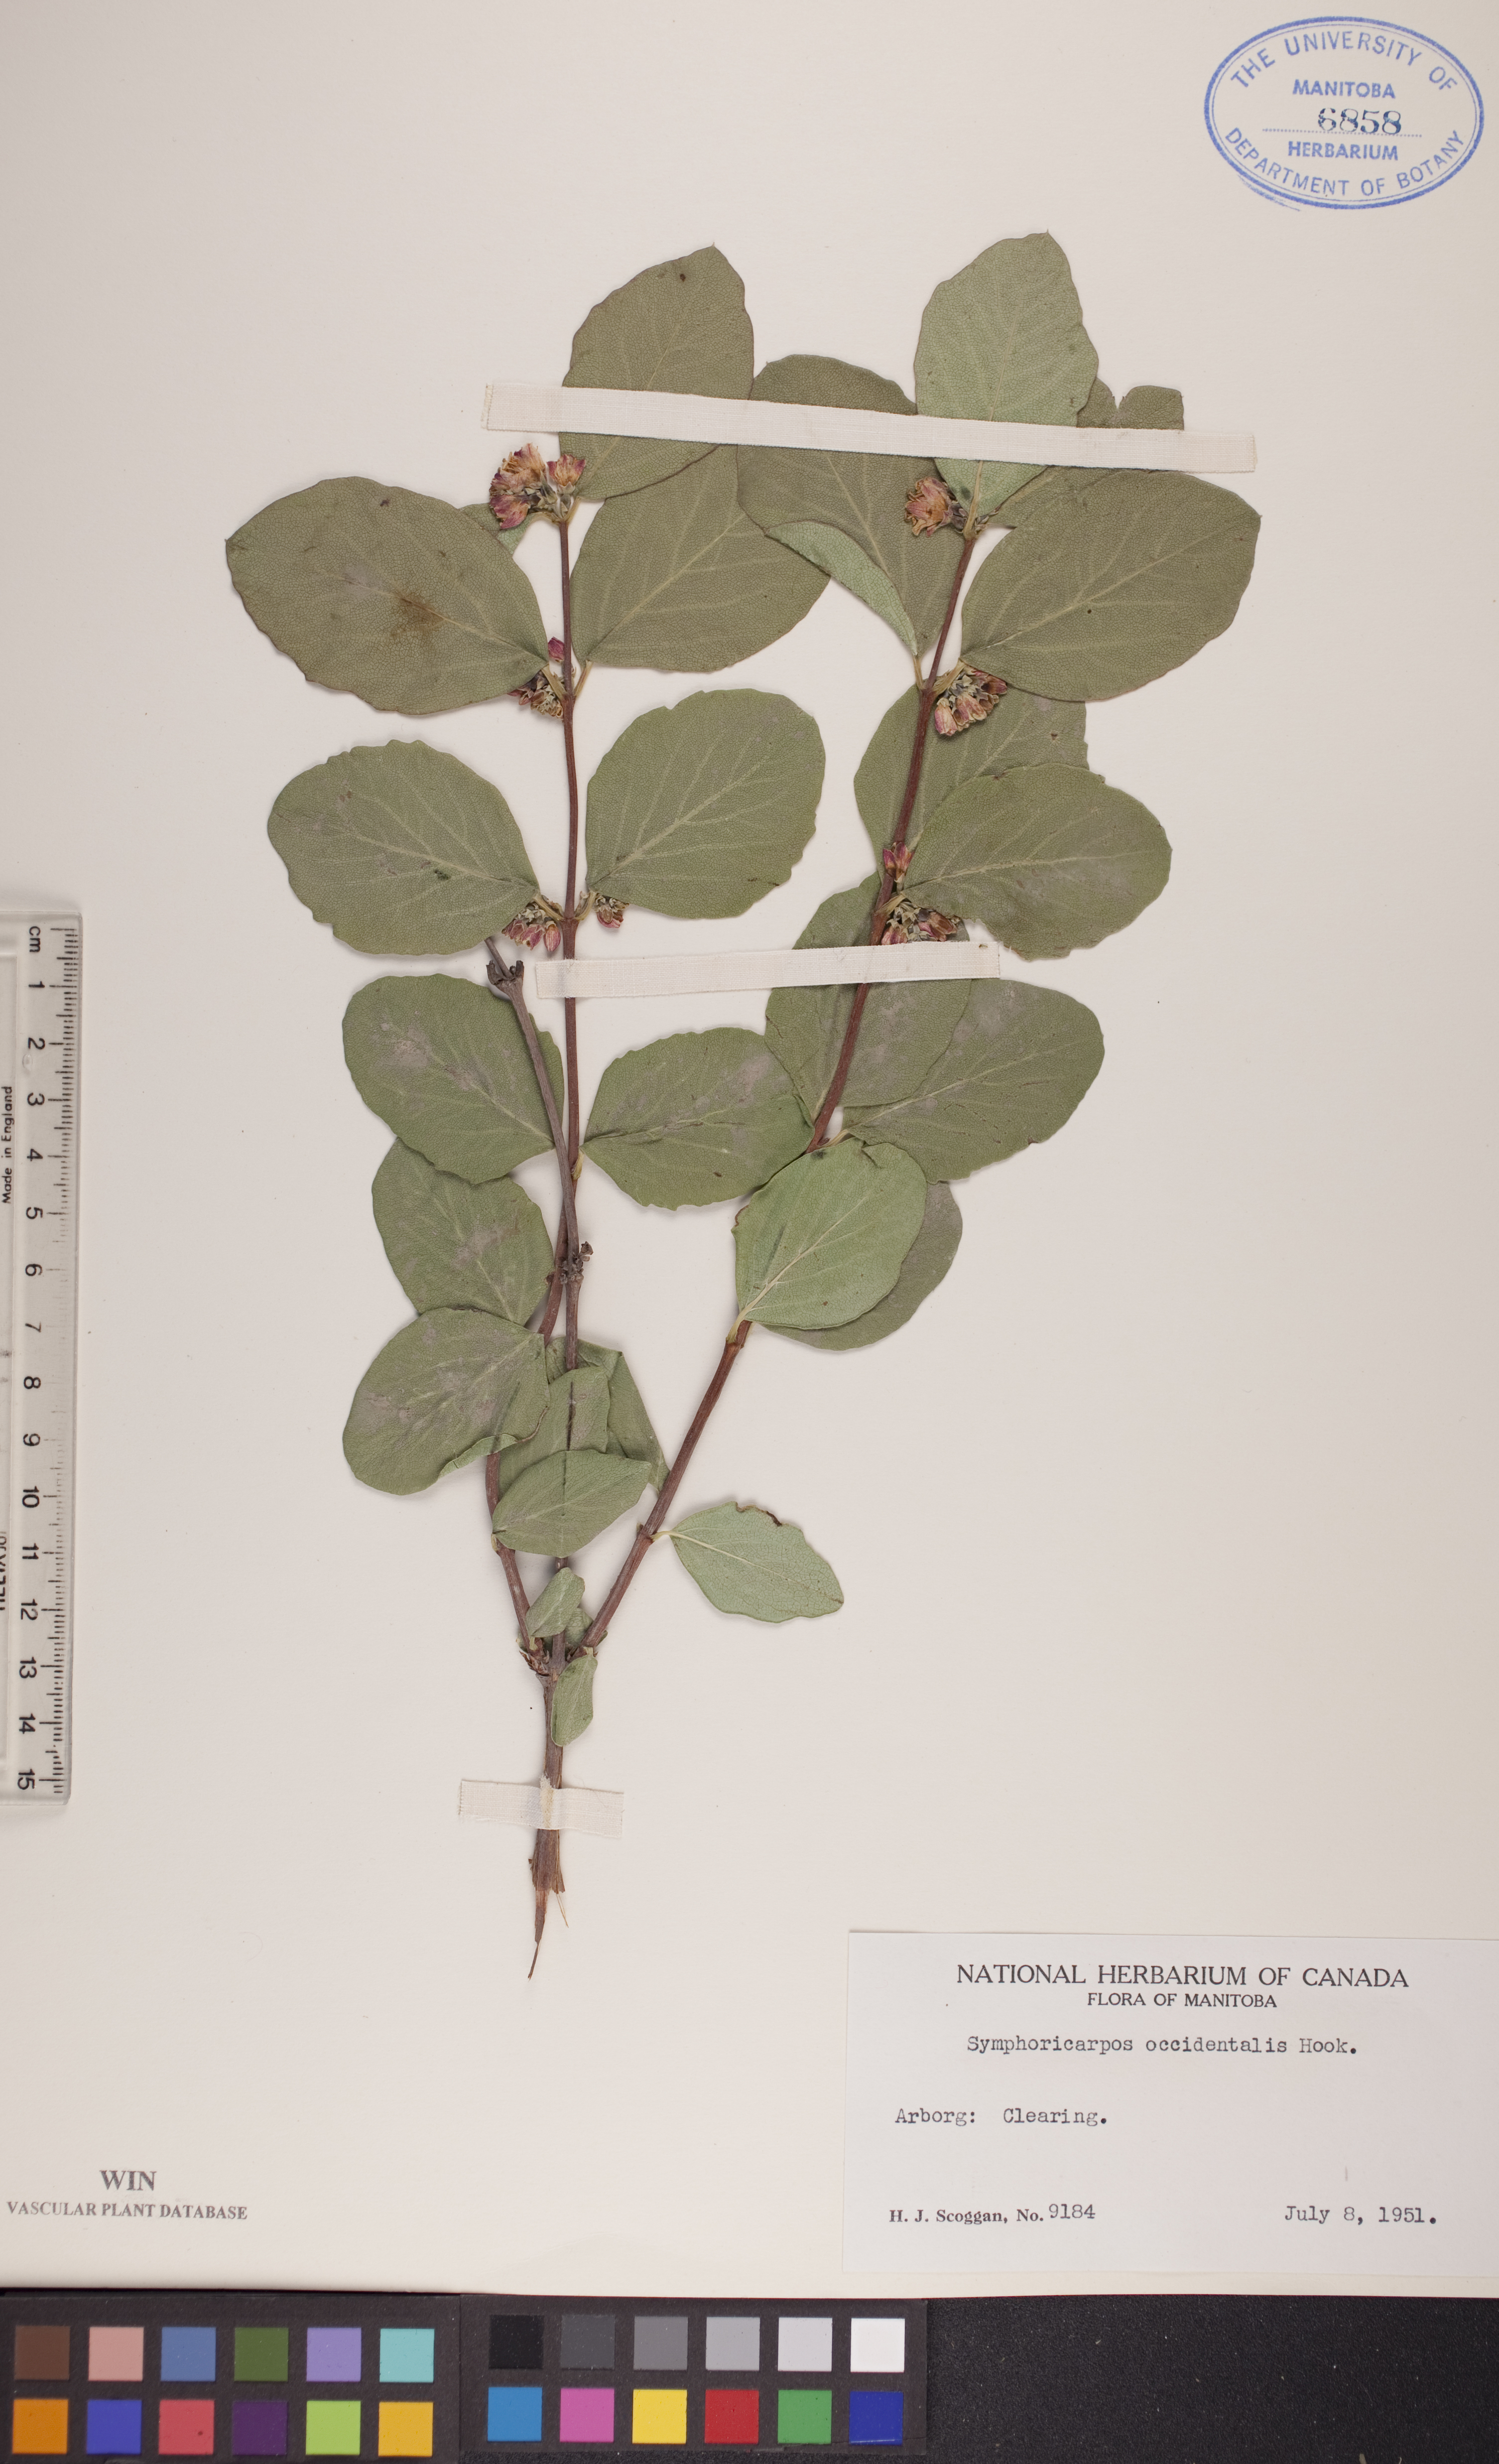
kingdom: Plantae
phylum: Tracheophyta
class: Magnoliopsida
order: Dipsacales
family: Caprifoliaceae
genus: Symphoricarpos
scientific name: Symphoricarpos occidentalis
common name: Wolfberry
